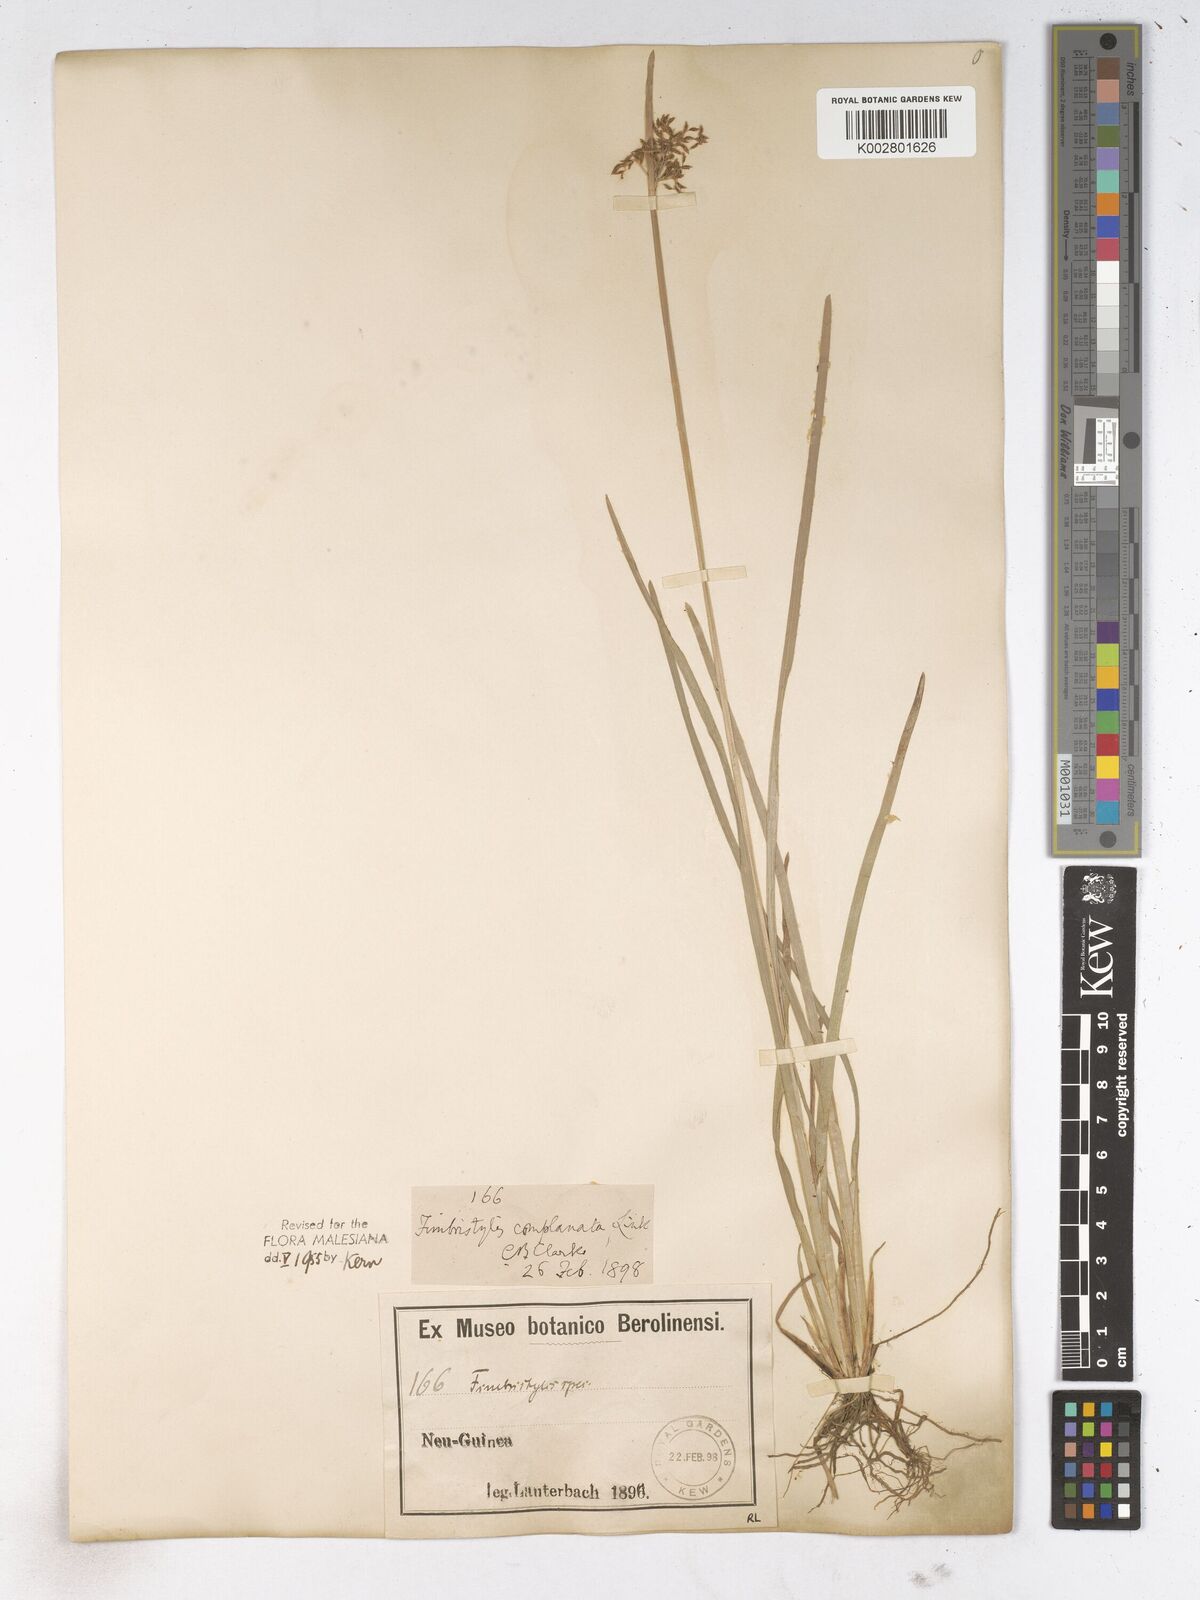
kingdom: Plantae
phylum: Tracheophyta
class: Liliopsida
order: Poales
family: Cyperaceae
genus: Fimbristylis
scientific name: Fimbristylis complanata
